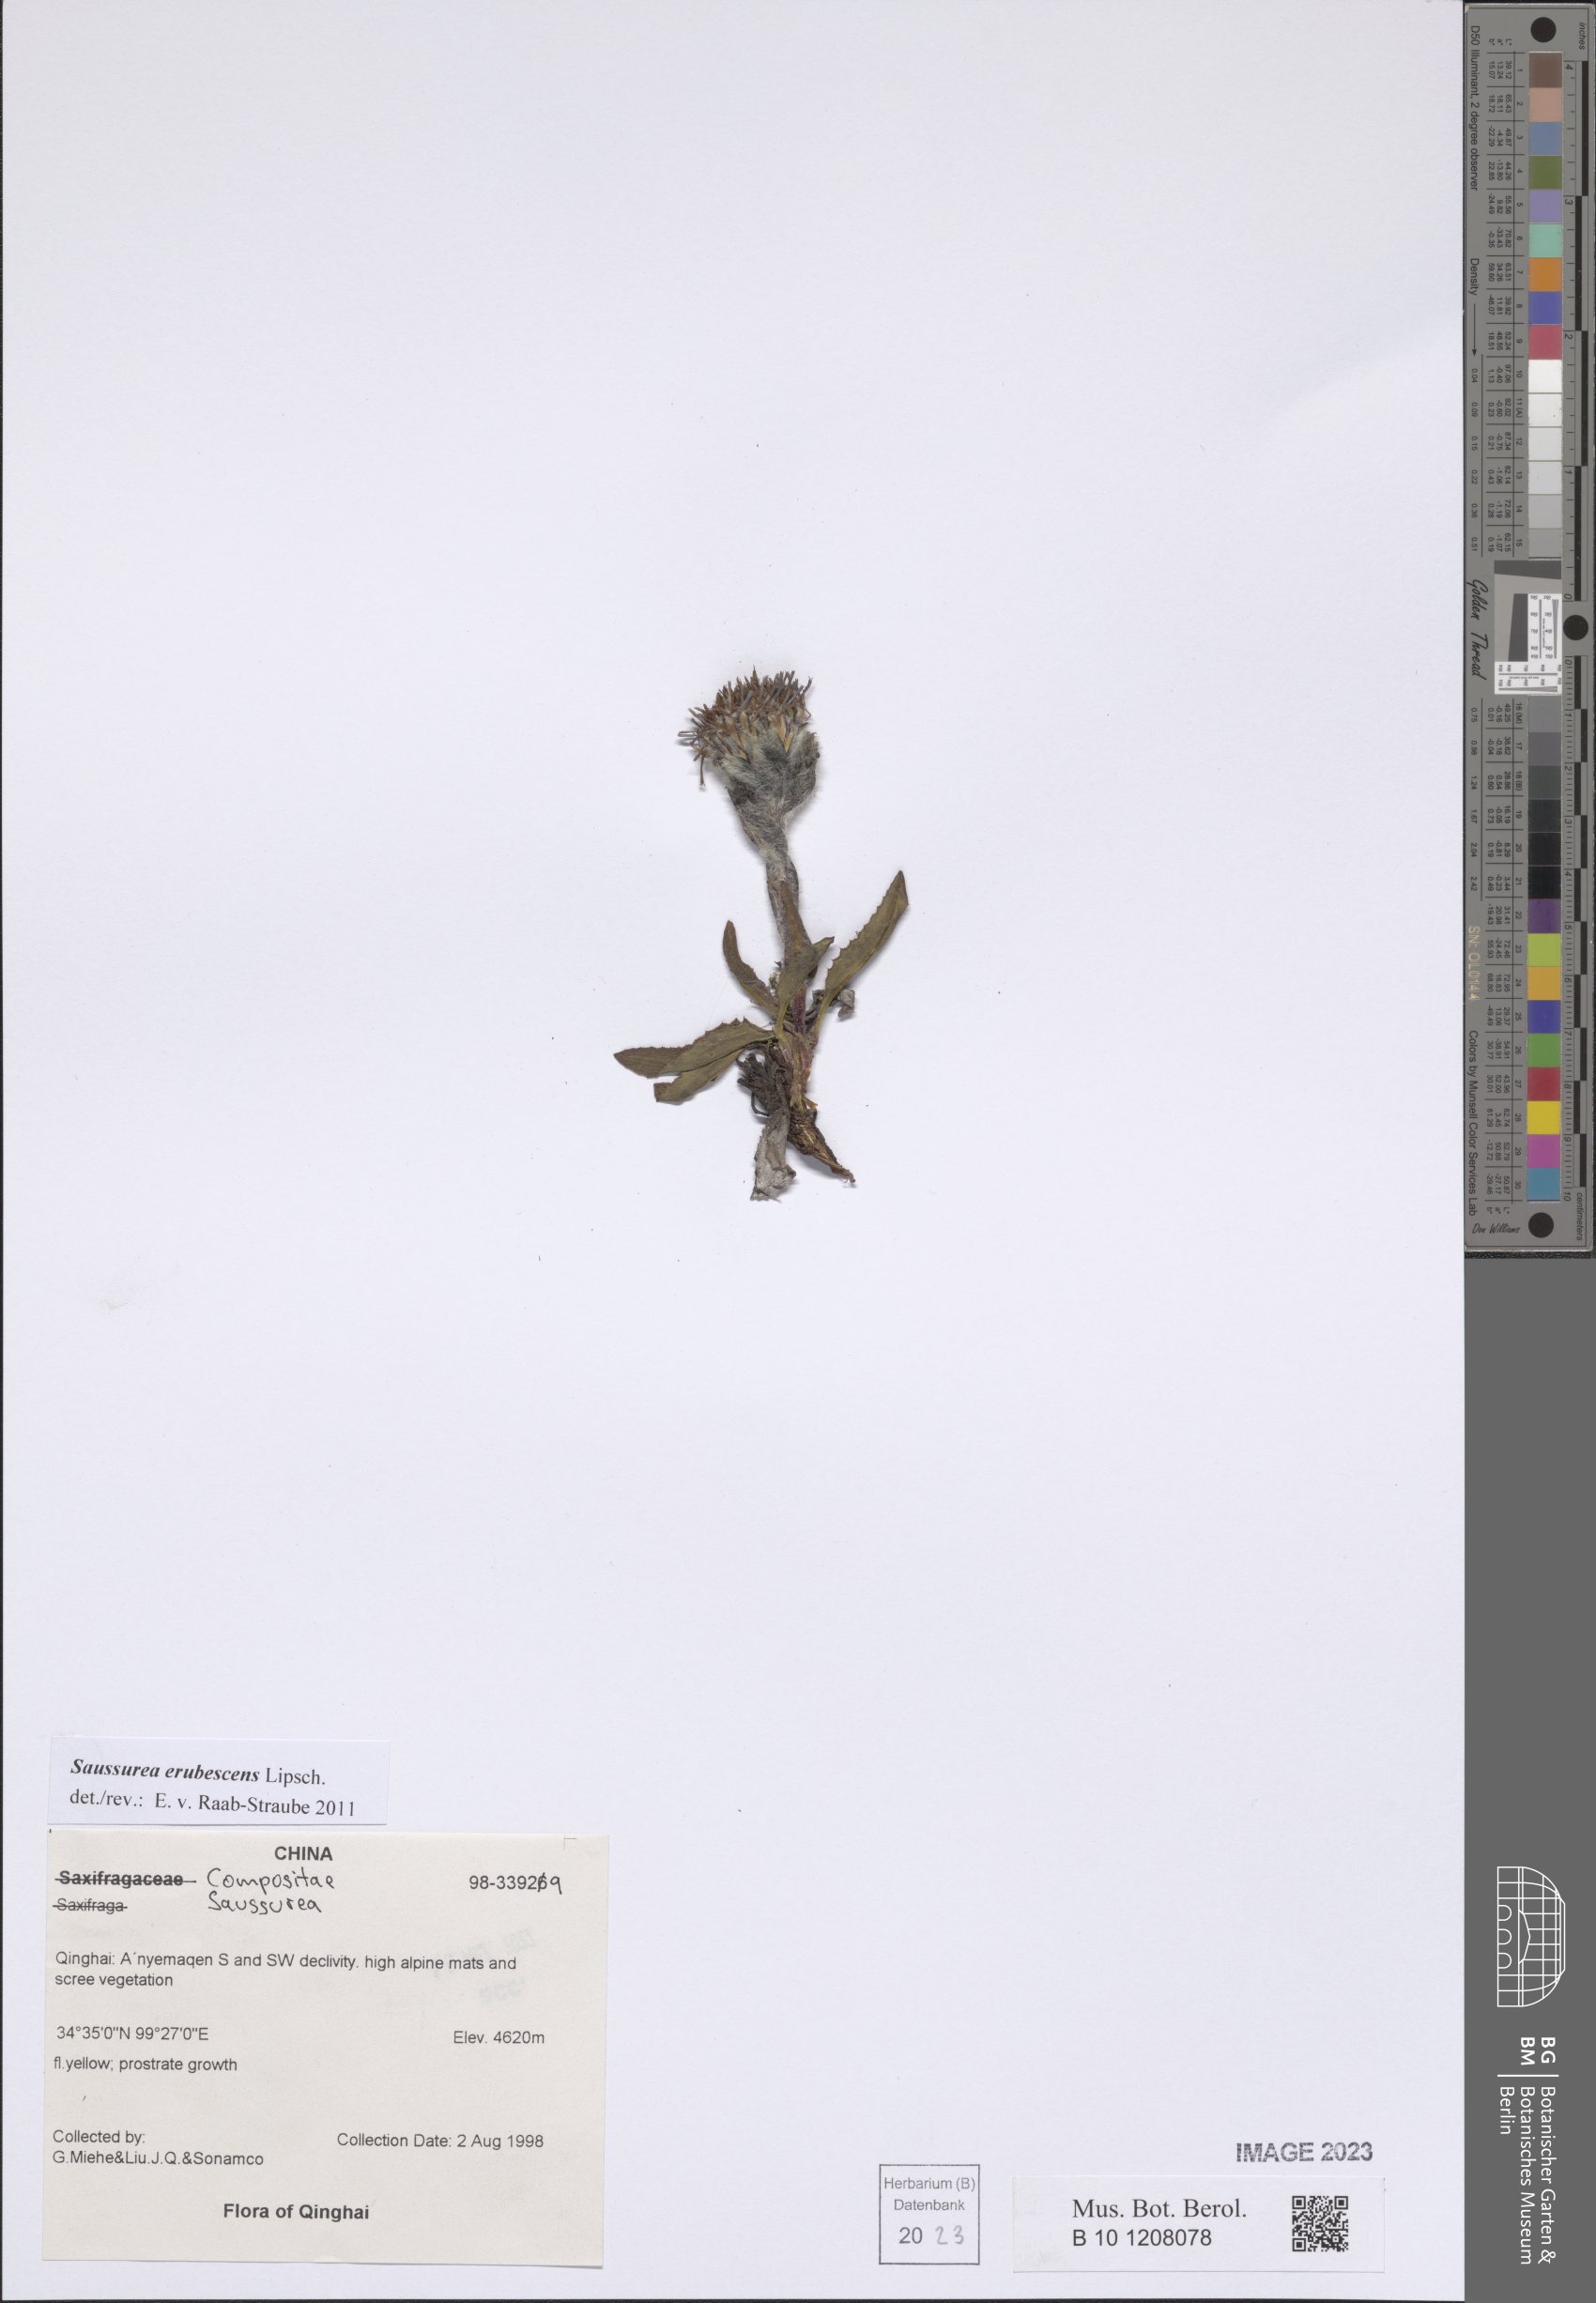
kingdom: Plantae
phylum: Tracheophyta
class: Magnoliopsida
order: Asterales
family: Asteraceae
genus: Saussurea
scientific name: Saussurea erubescens
